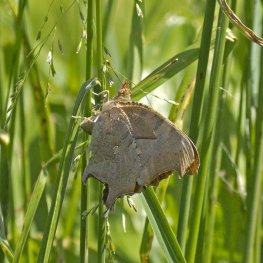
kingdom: Animalia
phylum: Arthropoda
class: Insecta
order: Lepidoptera
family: Nymphalidae
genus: Polygonia
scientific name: Polygonia interrogationis
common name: Question Mark
